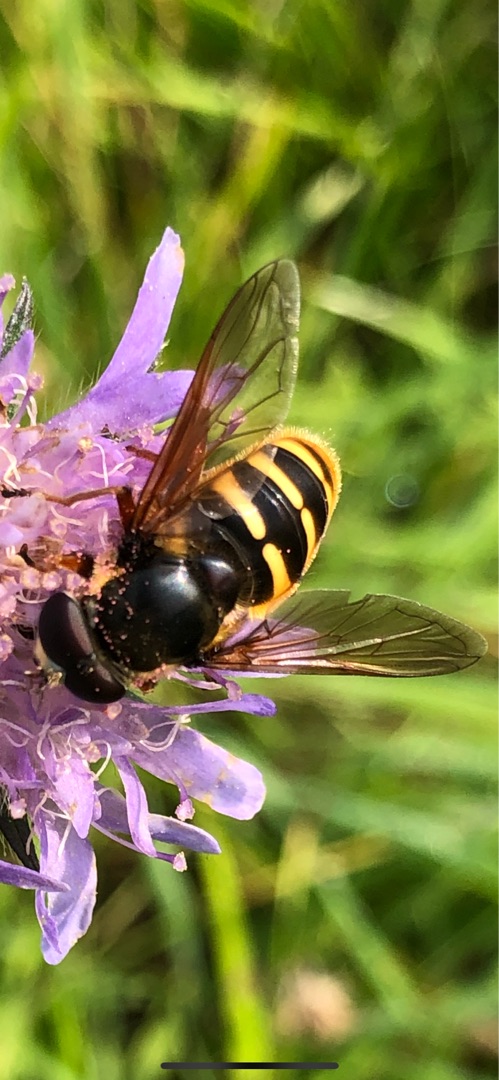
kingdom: Animalia
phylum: Arthropoda
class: Insecta
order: Diptera
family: Syrphidae
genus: Sericomyia
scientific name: Sericomyia silentis
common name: Tørve-silkesvirreflue
